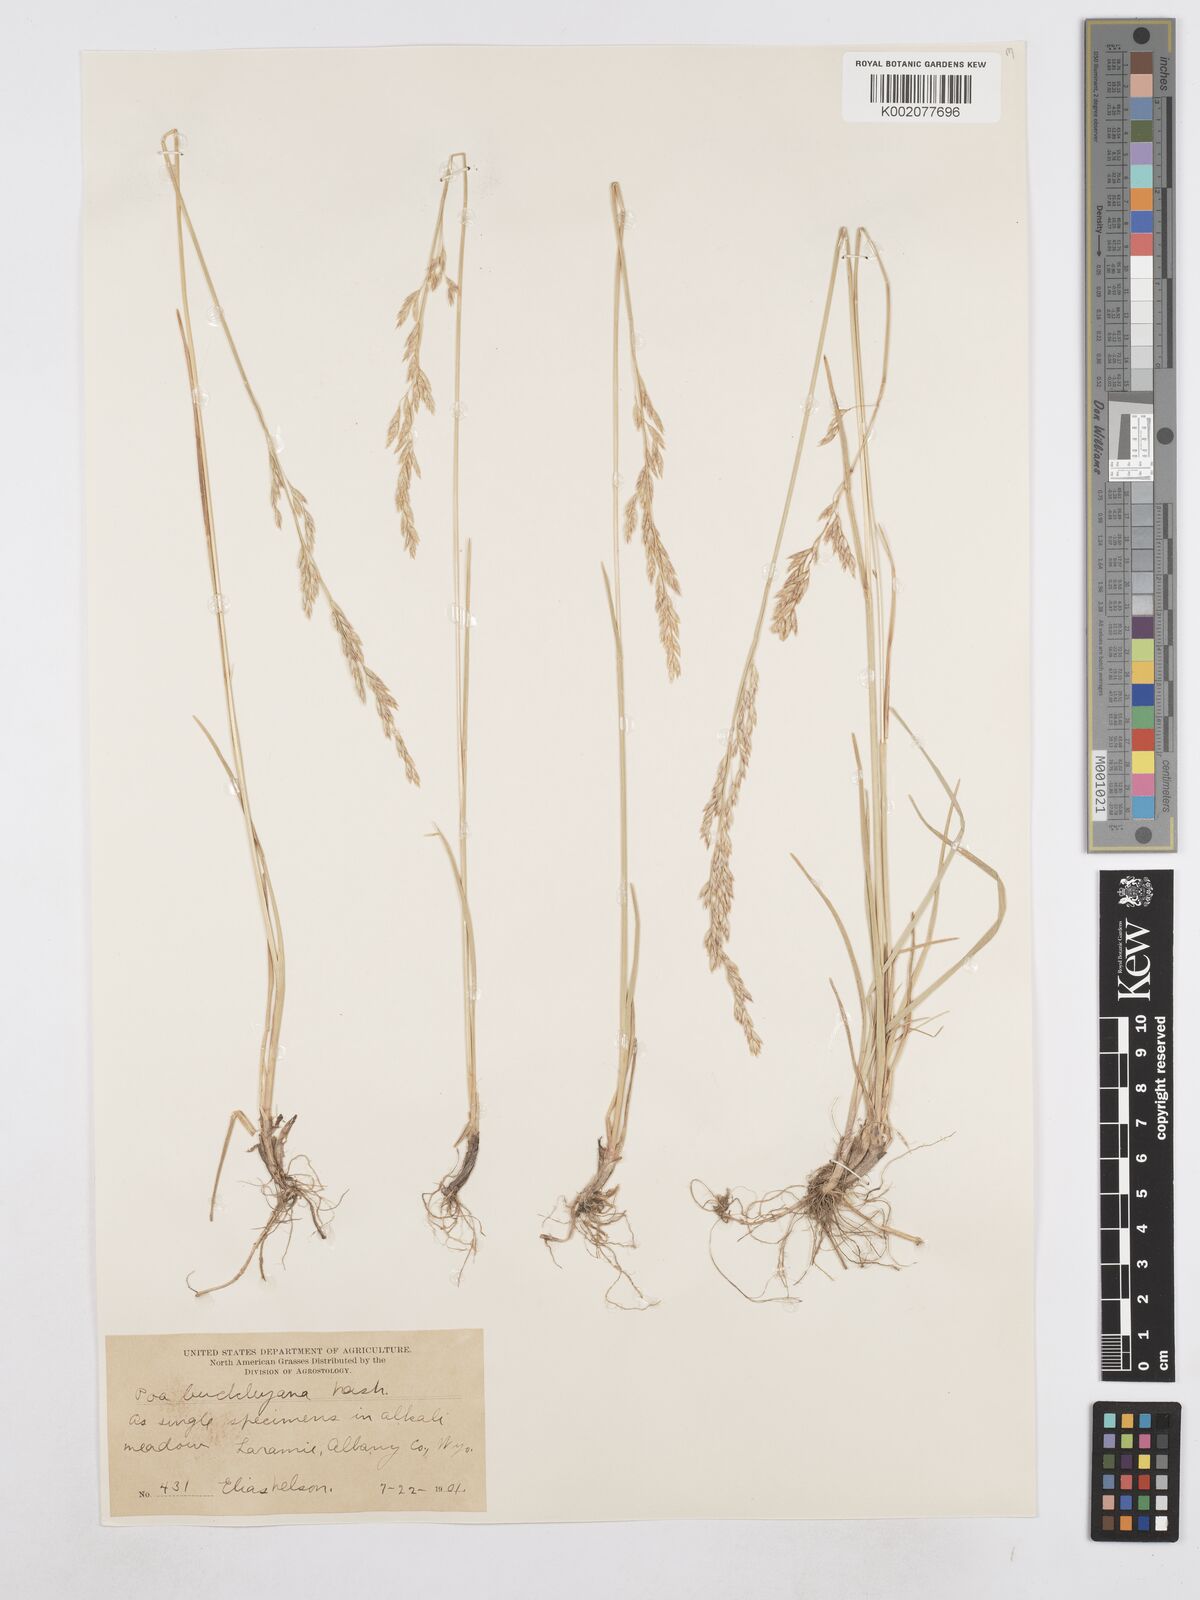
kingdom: Plantae
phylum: Tracheophyta
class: Liliopsida
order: Poales
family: Poaceae
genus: Poa
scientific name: Poa secunda
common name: Sandberg bluegrass
